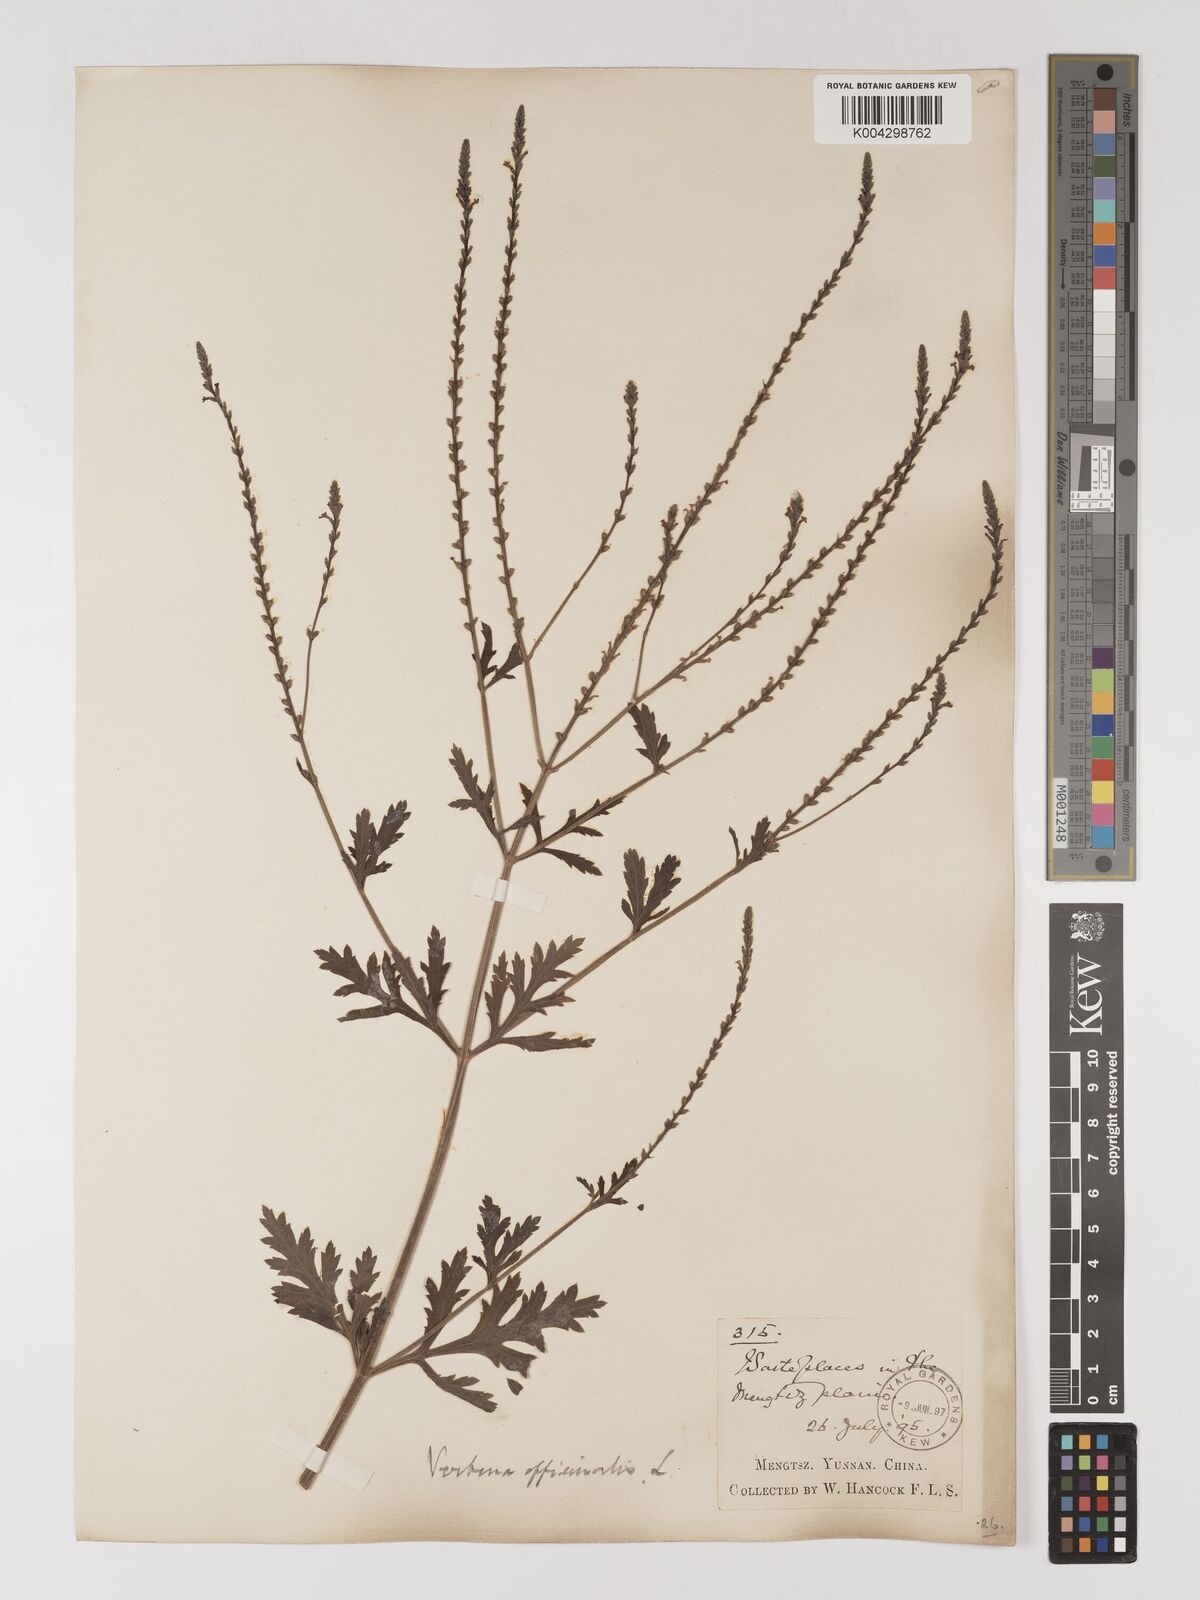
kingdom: Plantae
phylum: Tracheophyta
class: Magnoliopsida
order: Lamiales
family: Verbenaceae
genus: Verbena
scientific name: Verbena officinalis
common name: Vervain
